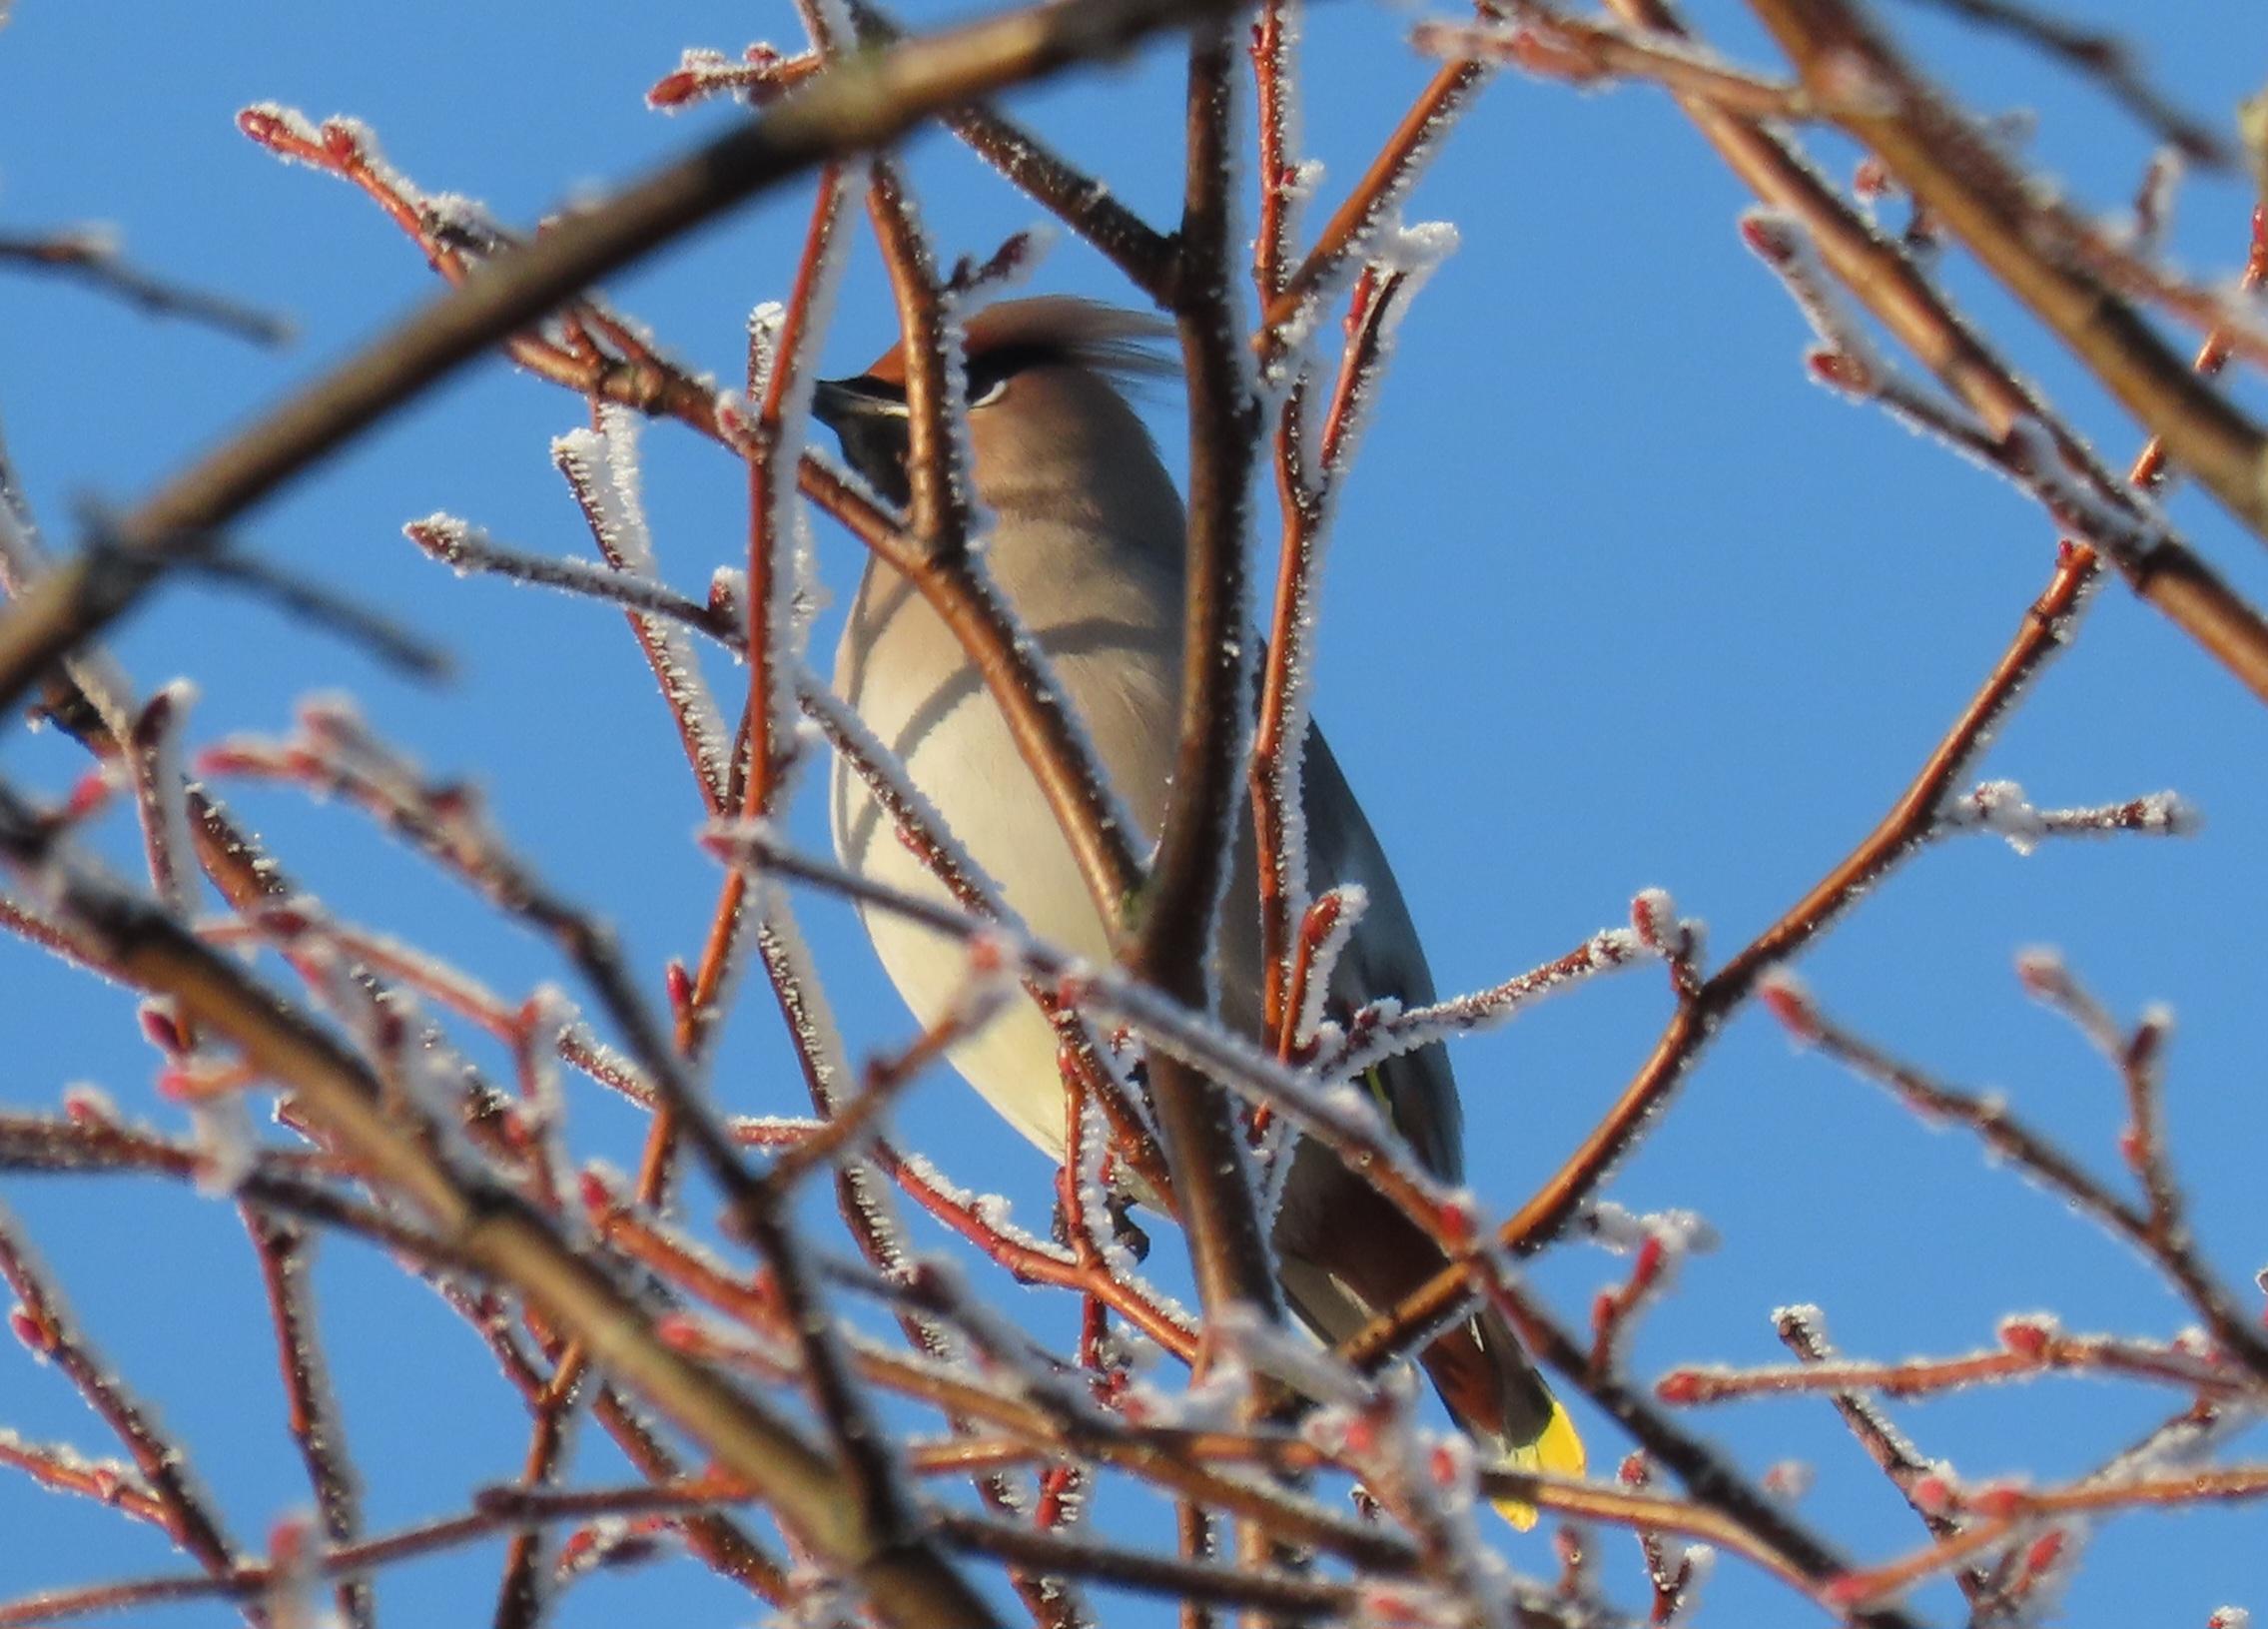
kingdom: Animalia
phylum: Chordata
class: Aves
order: Passeriformes
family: Bombycillidae
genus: Bombycilla
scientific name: Bombycilla garrulus
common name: Silkehale
